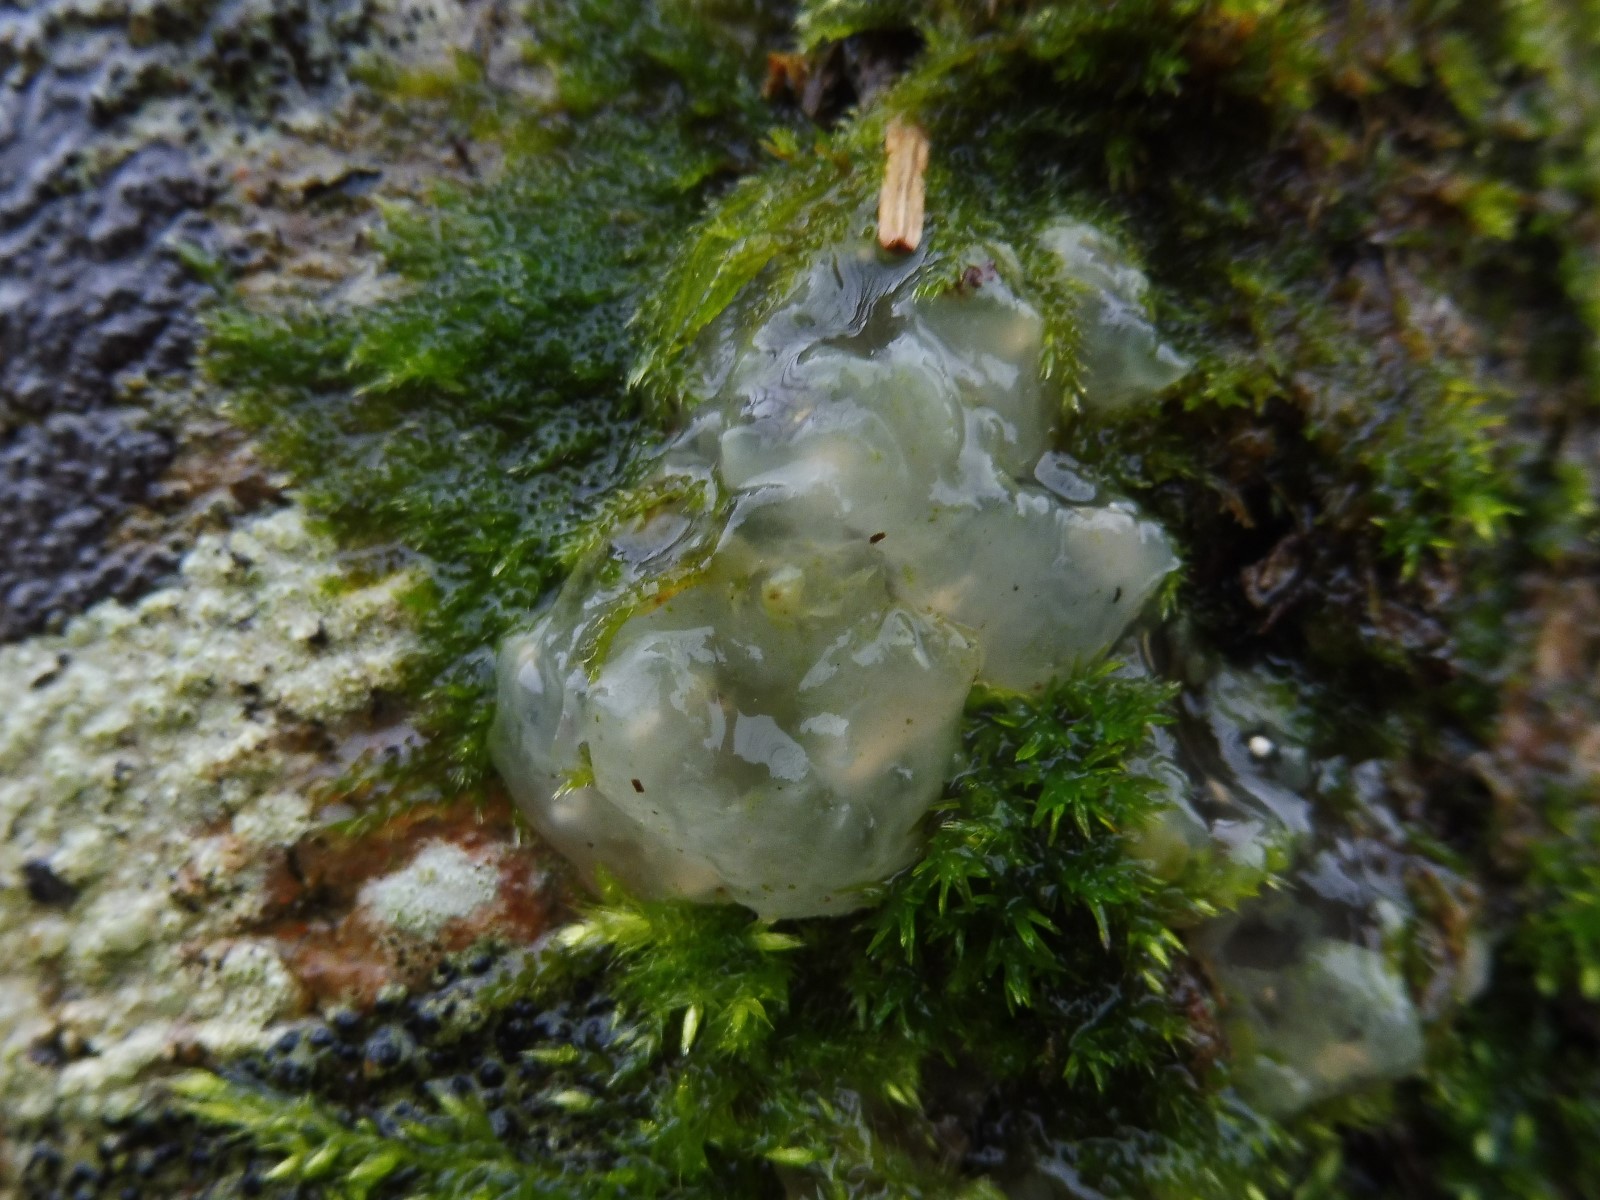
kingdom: Fungi
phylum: Basidiomycota
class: Agaricomycetes
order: Auriculariales
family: Hyaloriaceae
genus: Myxarium
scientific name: Myxarium nucleatum
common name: klar bævretop
